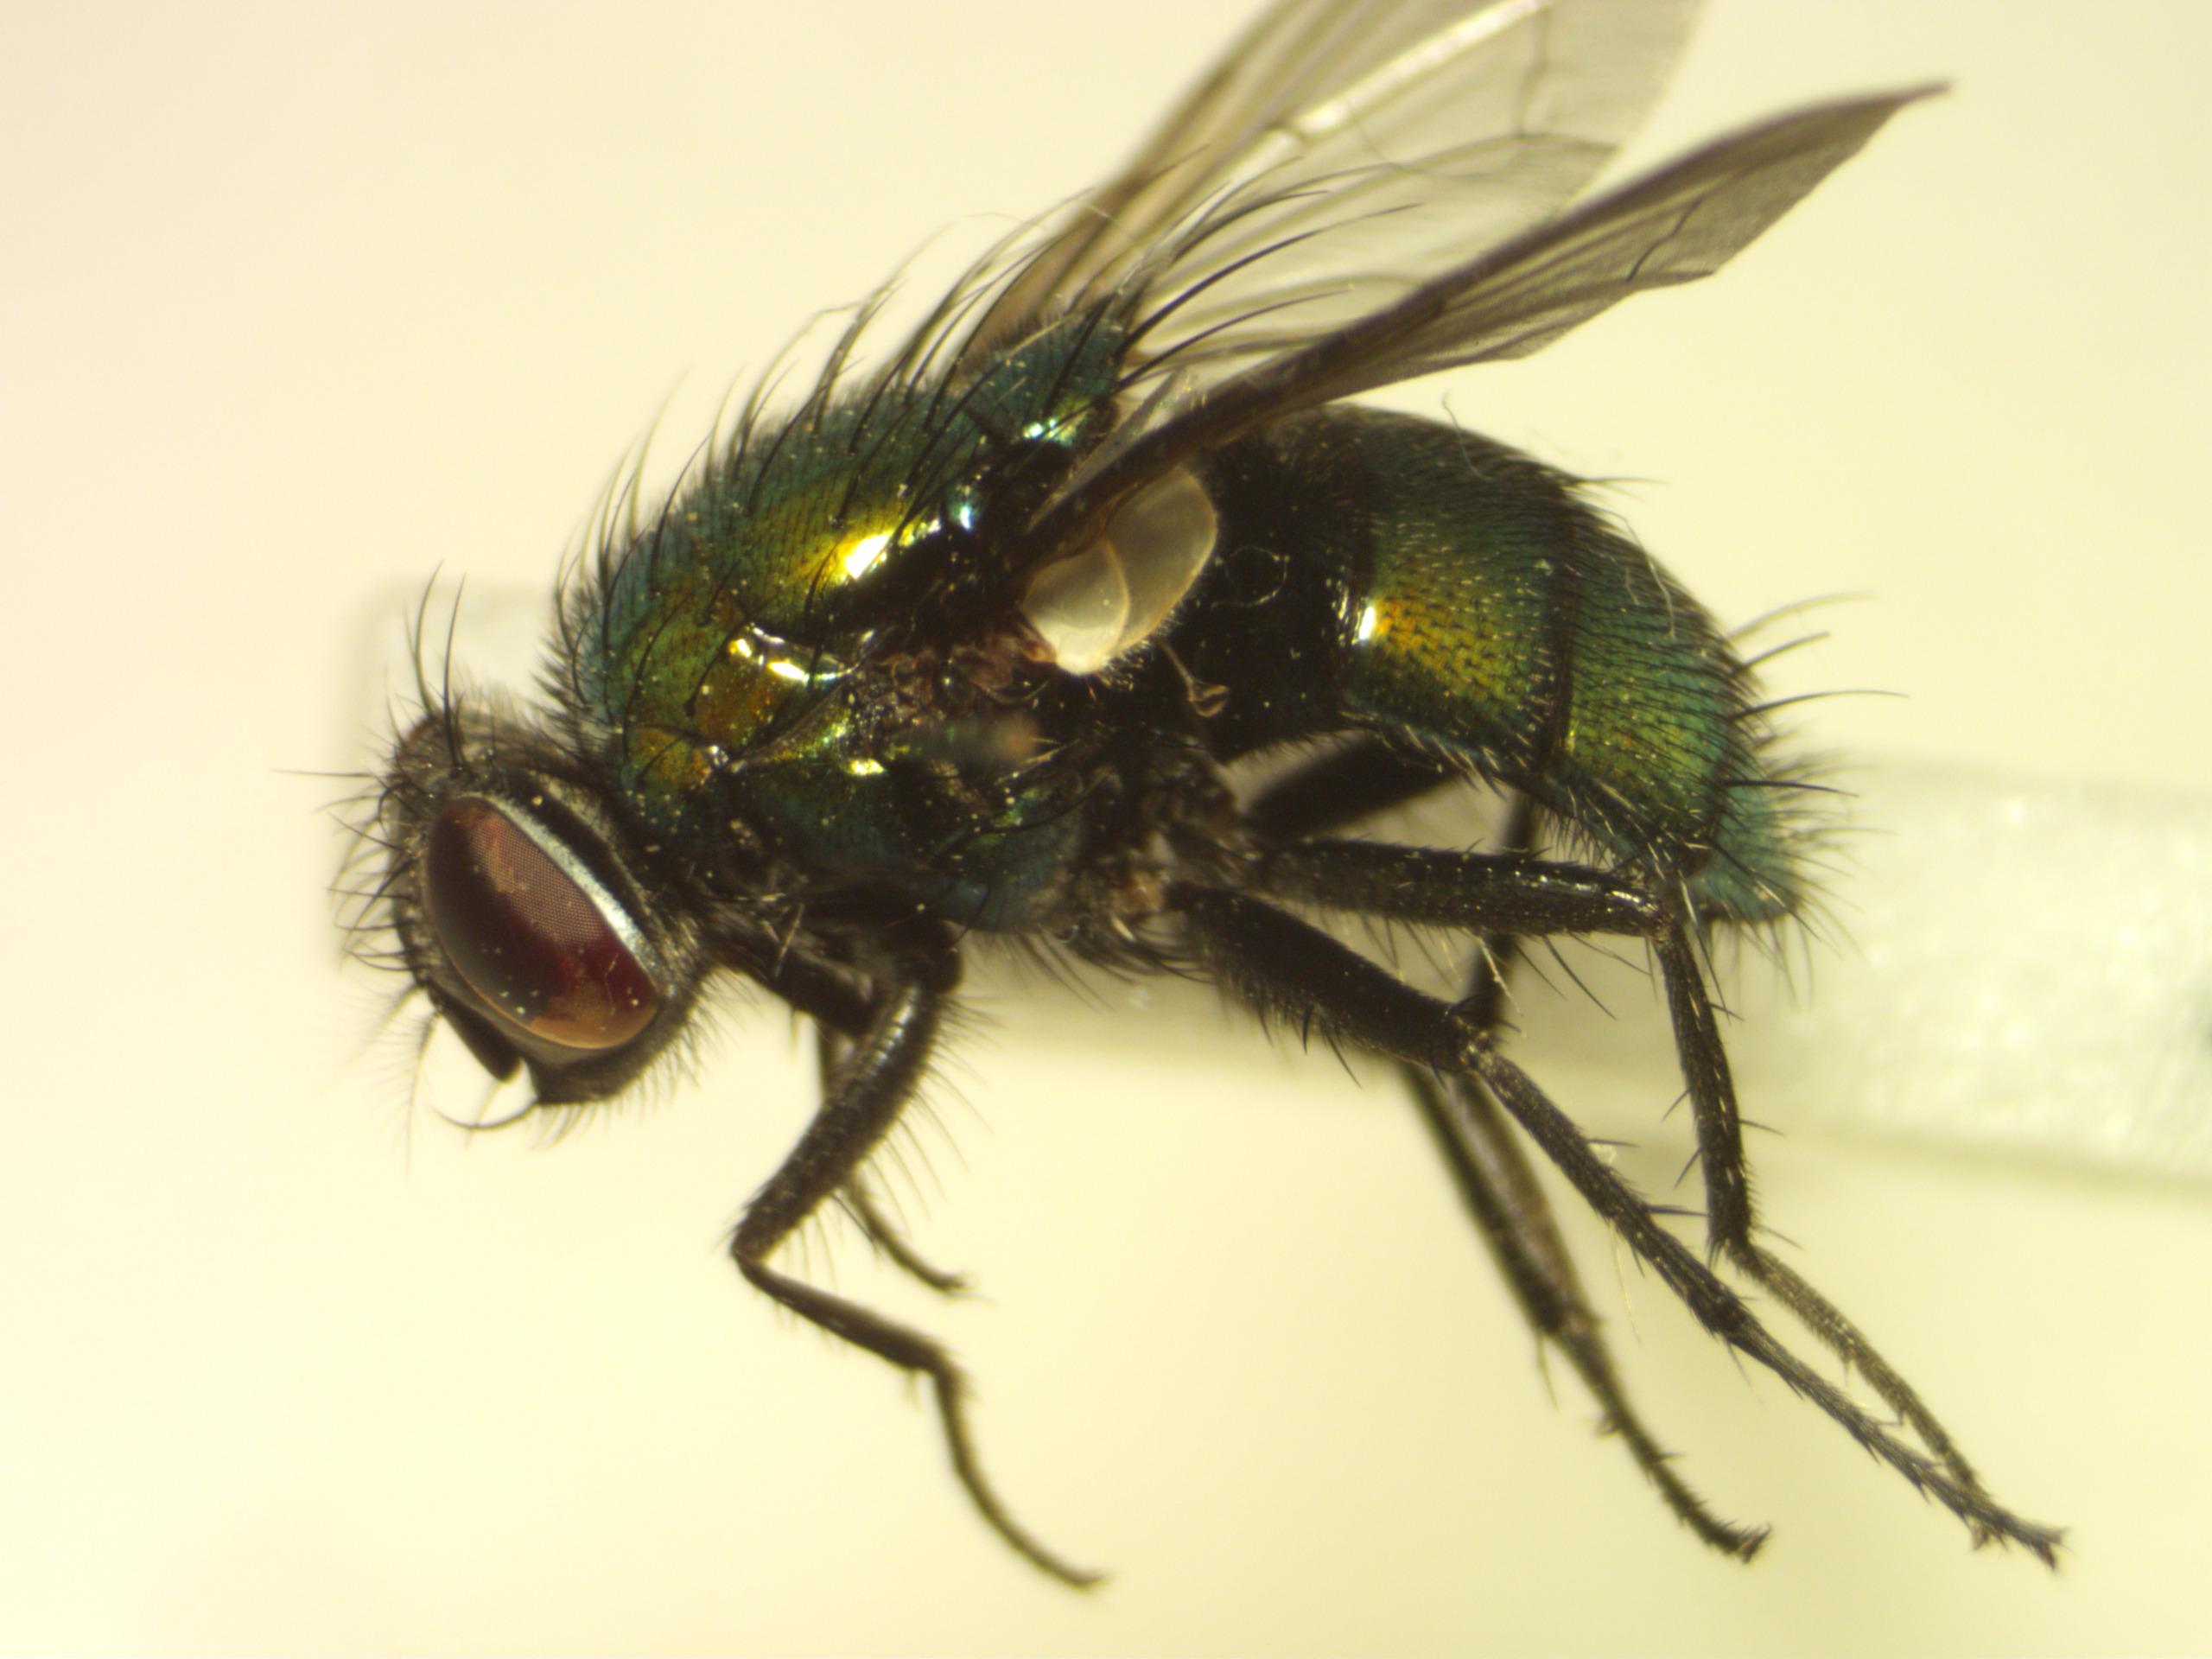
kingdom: Animalia
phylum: Arthropoda
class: Insecta
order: Diptera
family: Calliphoridae
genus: Lucilia
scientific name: Lucilia silvarum
